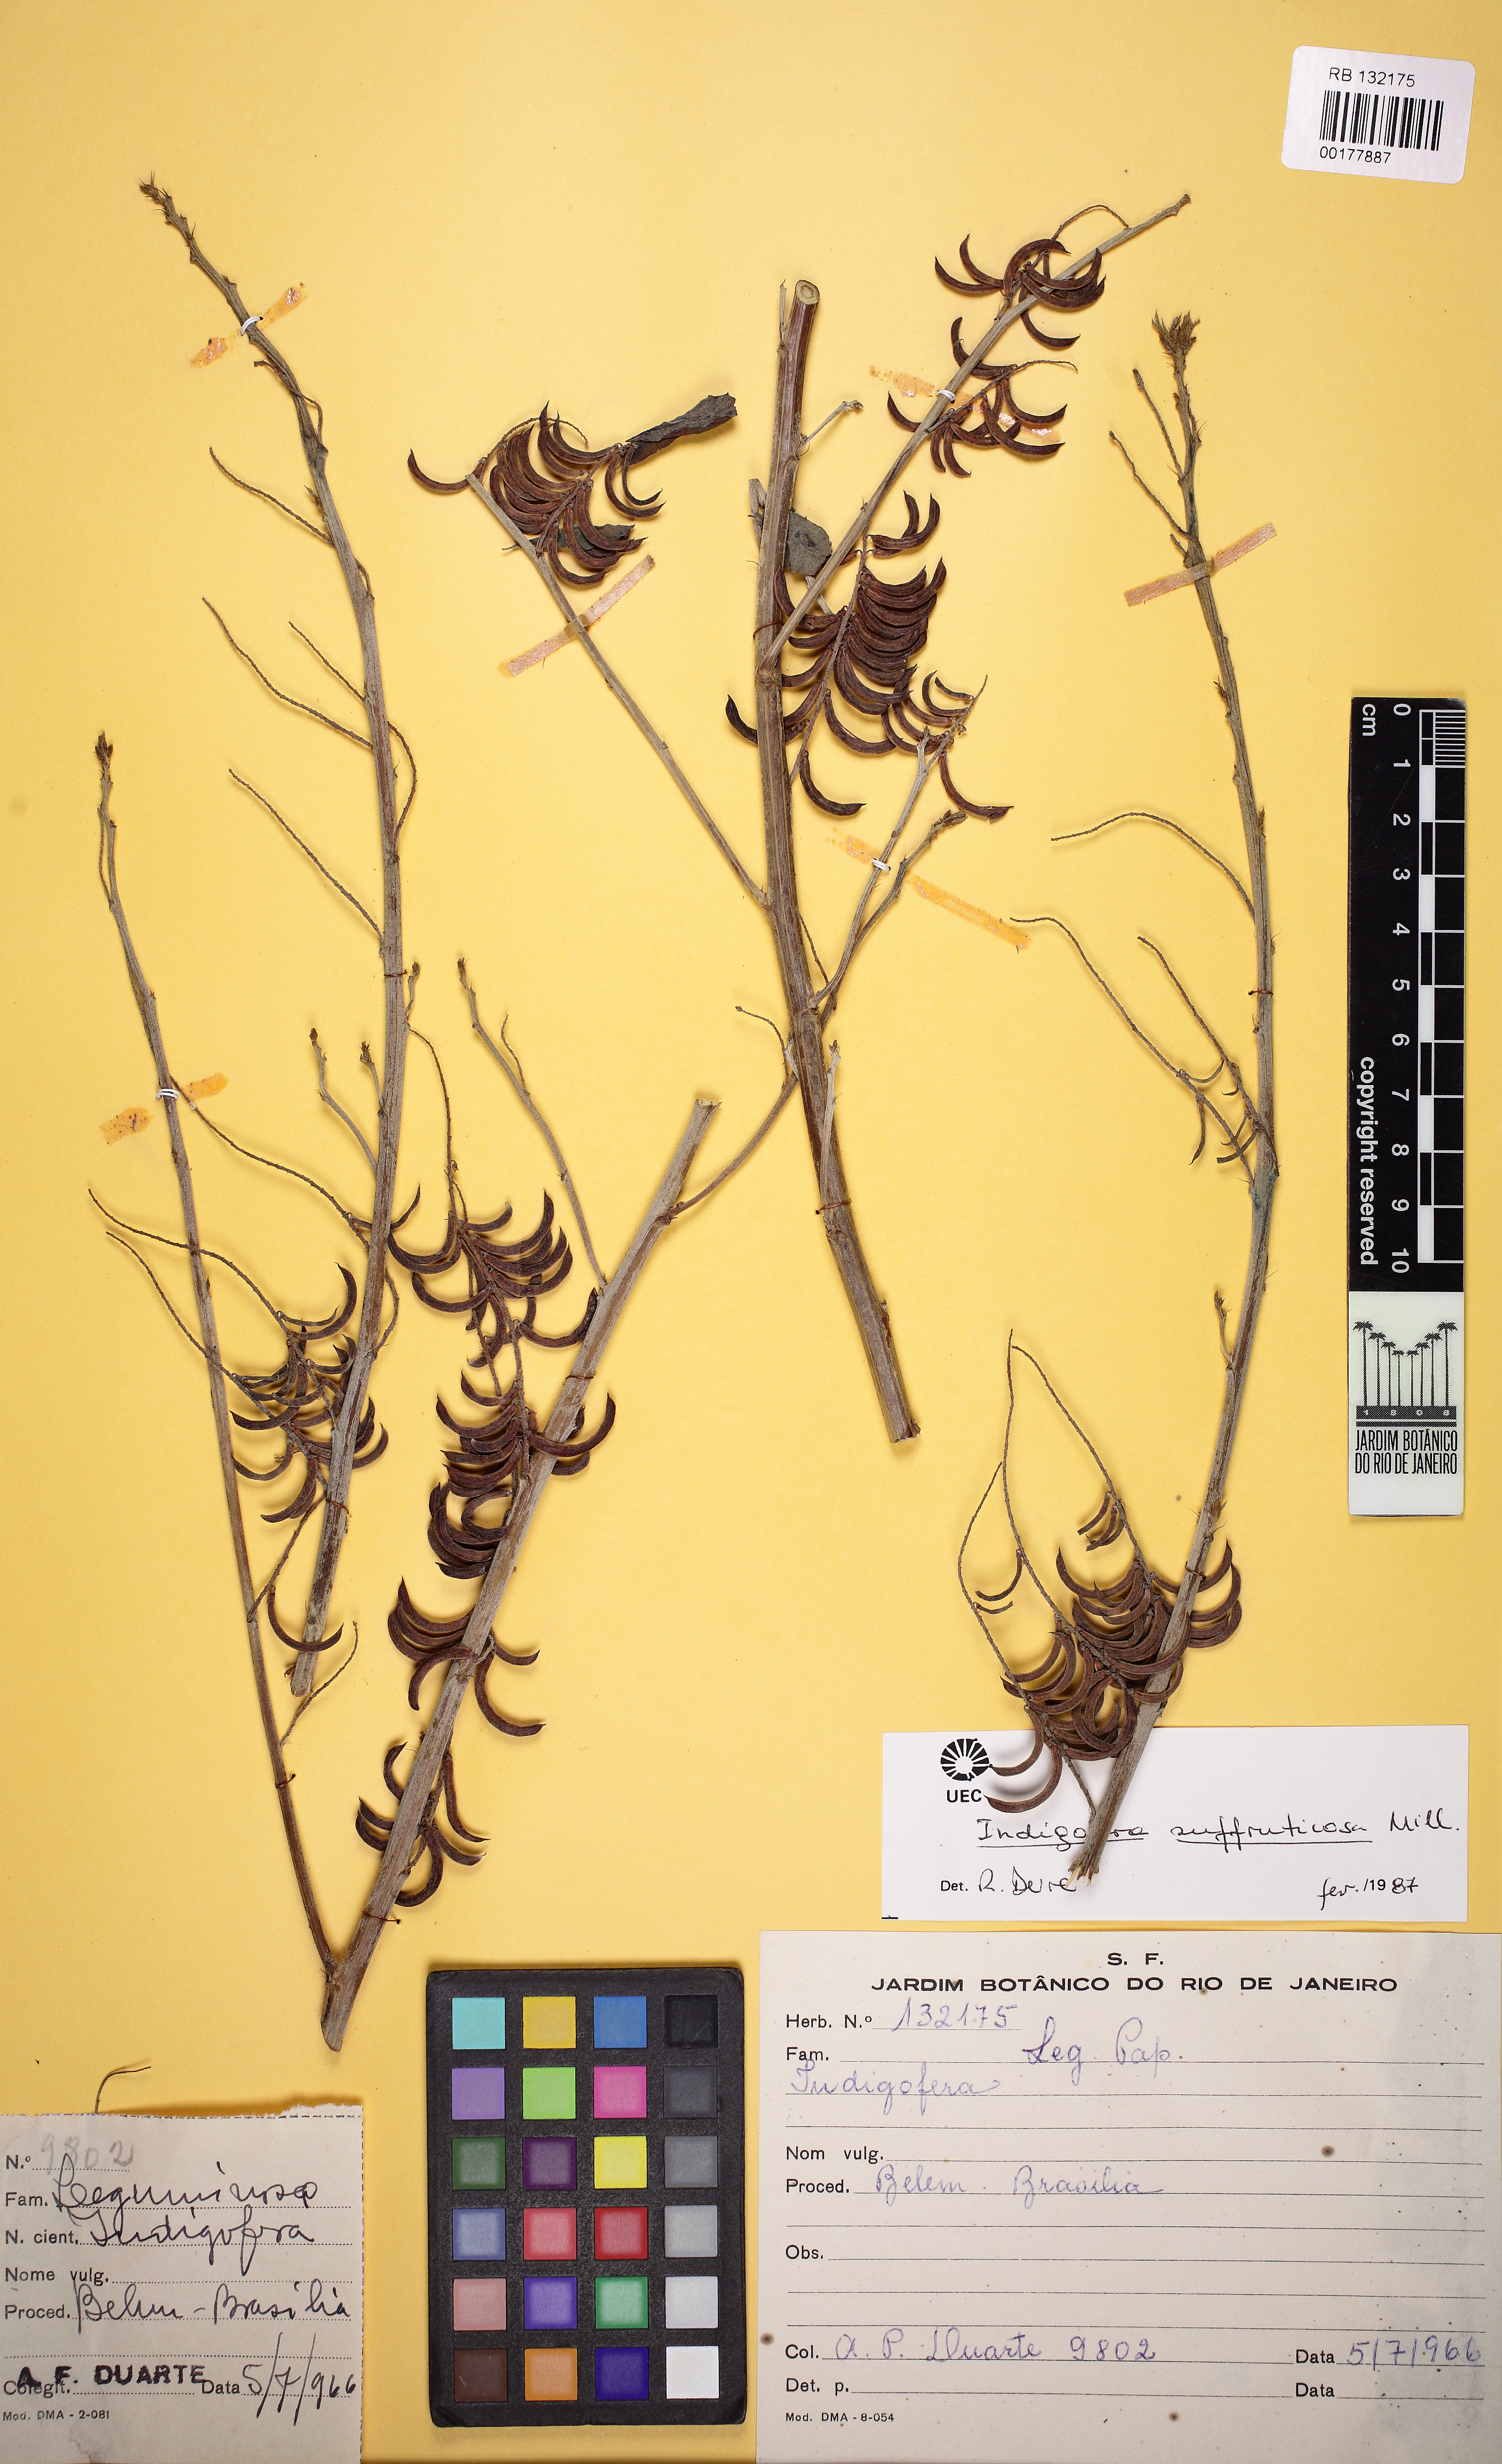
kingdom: Plantae
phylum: Tracheophyta
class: Magnoliopsida
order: Fabales
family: Fabaceae
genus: Indigofera
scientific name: Indigofera suffruticosa
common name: Anil de pasto
